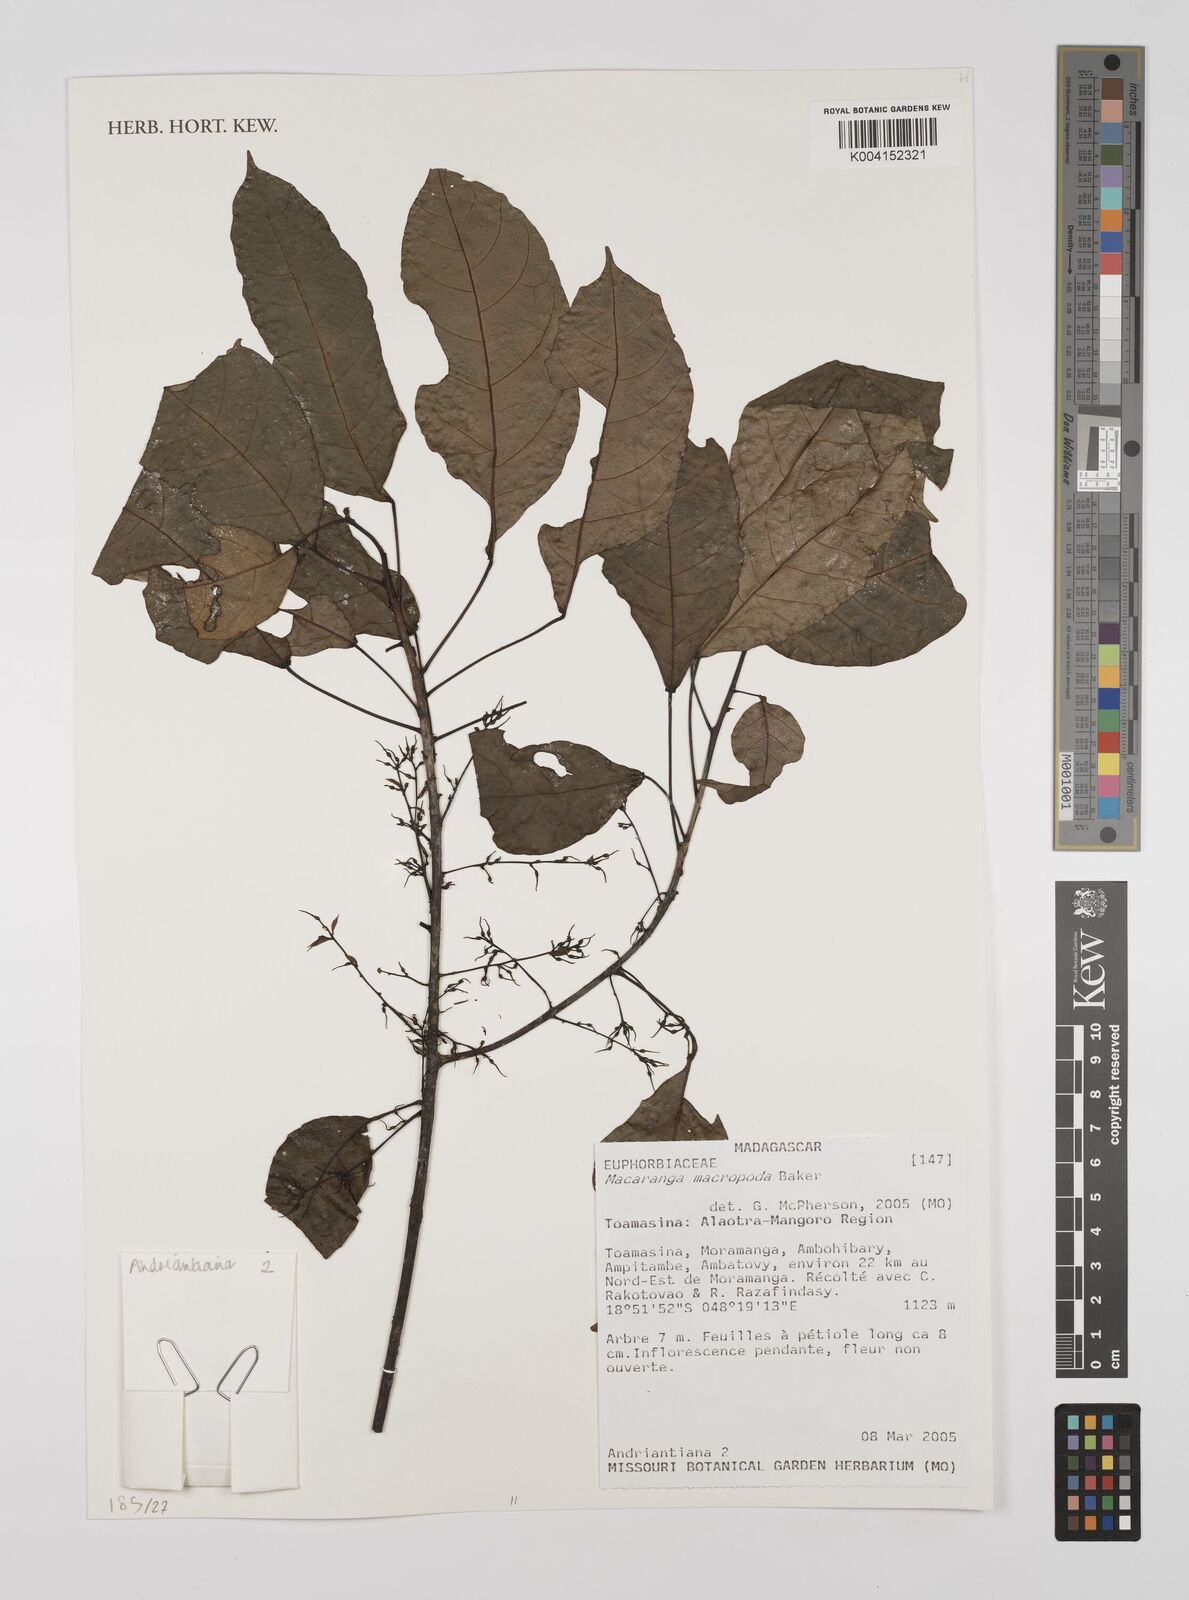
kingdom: Plantae
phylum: Tracheophyta
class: Magnoliopsida
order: Malpighiales
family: Euphorbiaceae
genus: Macaranga
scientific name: Macaranga macropoda
